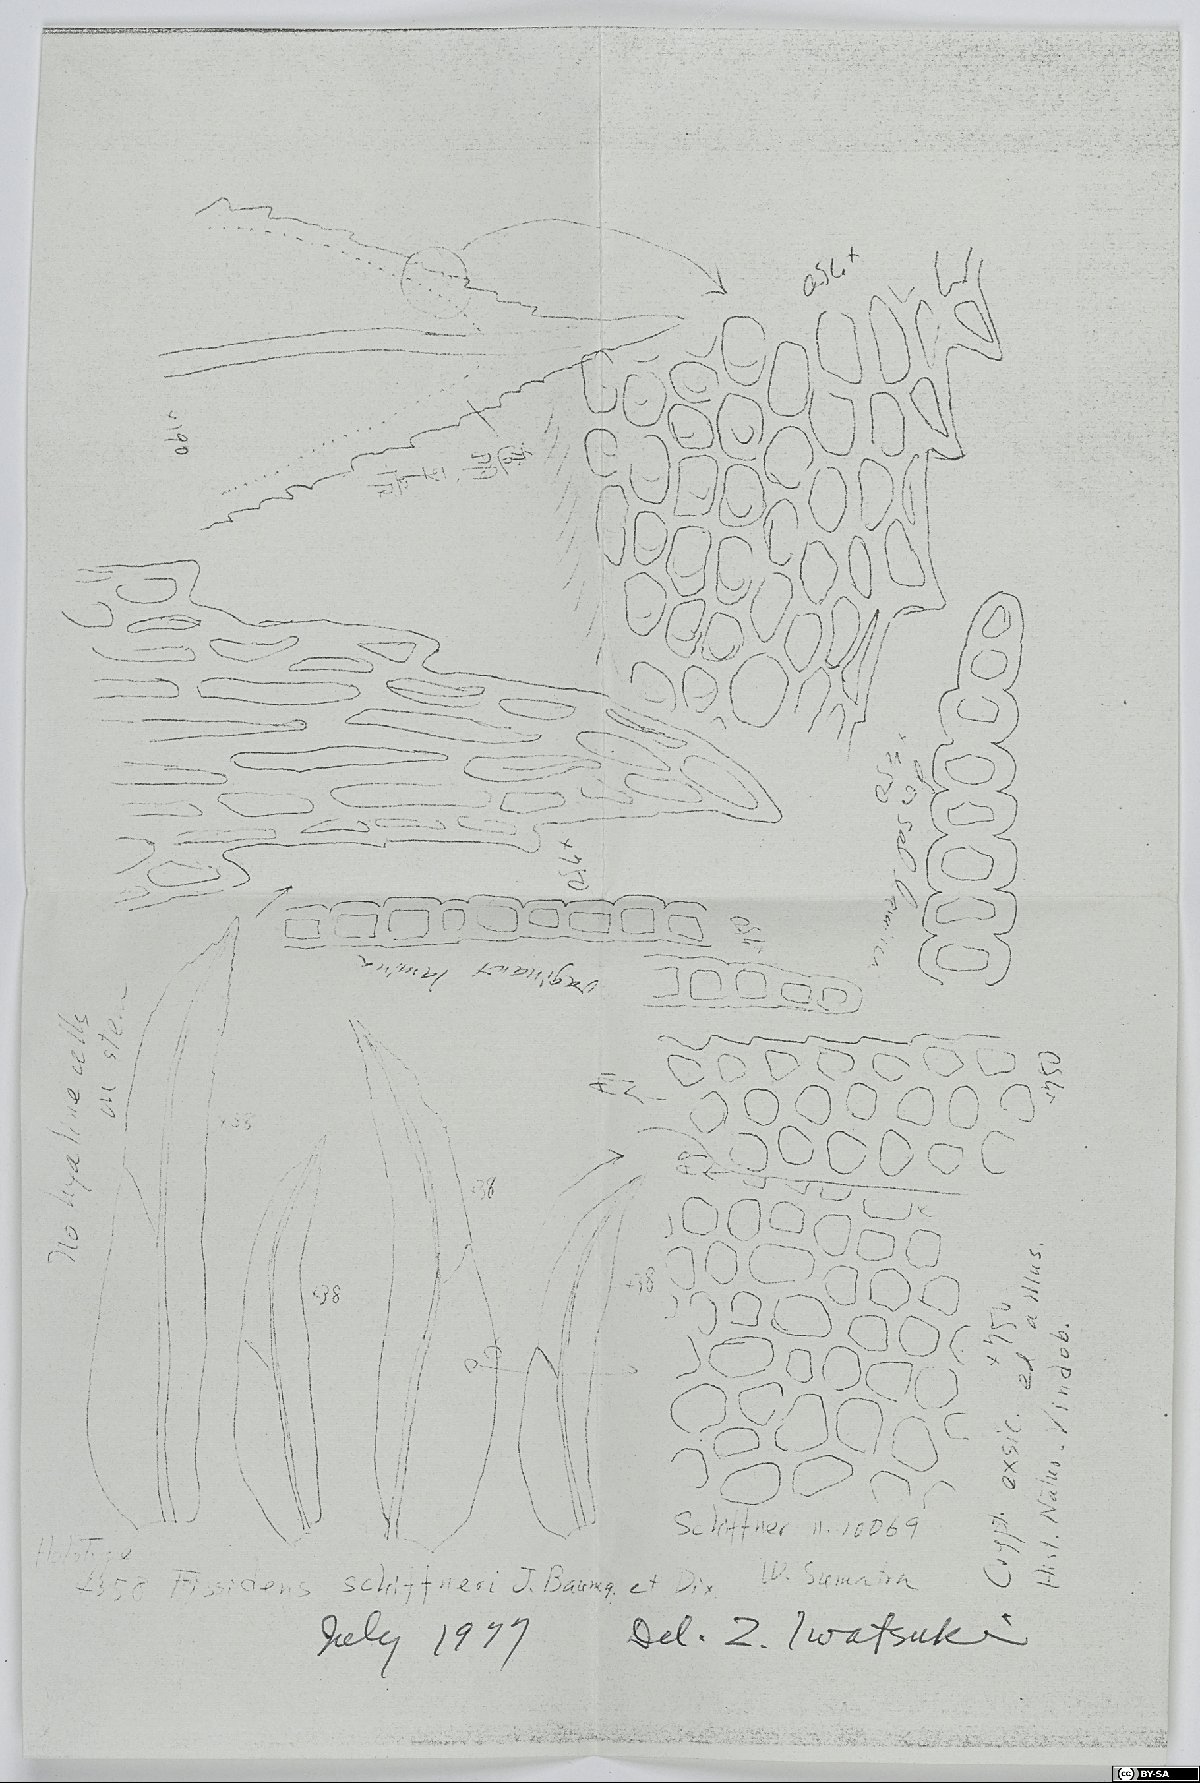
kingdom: Plantae
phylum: Bryophyta
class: Bryopsida
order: Dicranales
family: Fissidentaceae
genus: Fissidens
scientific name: Fissidens anomalus
